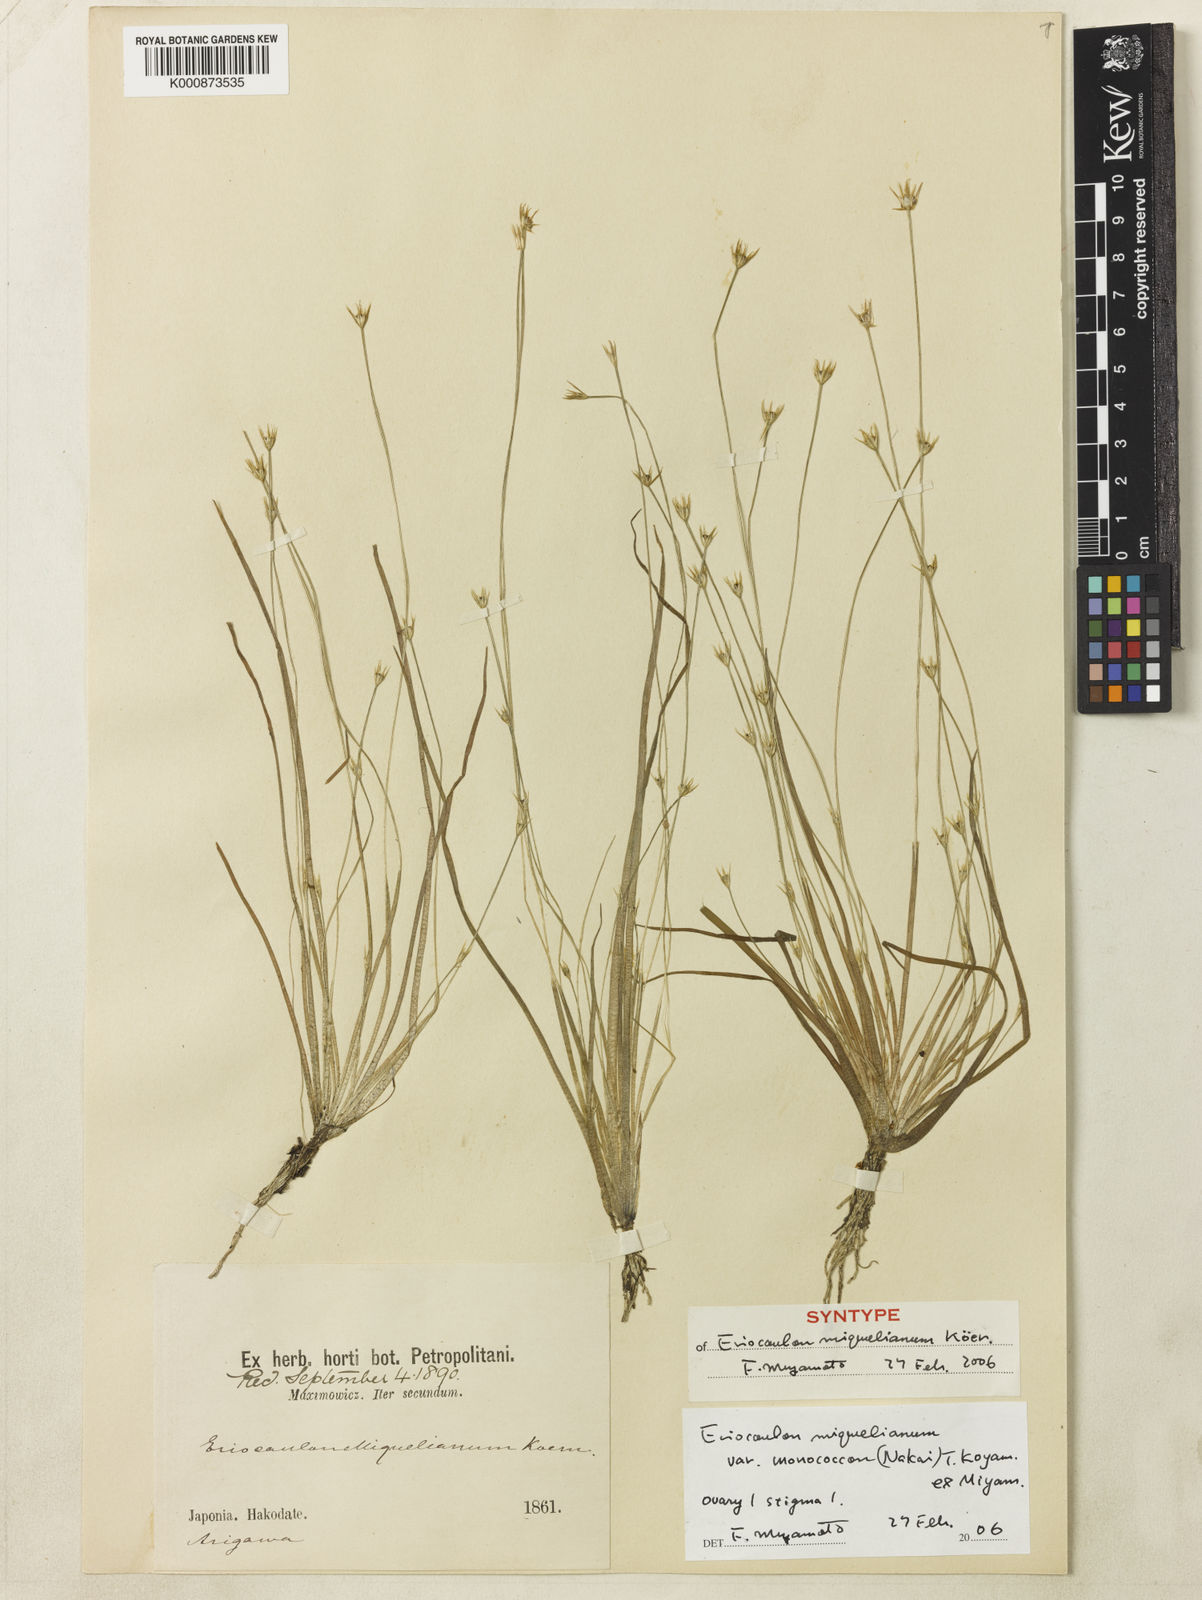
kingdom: Plantae
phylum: Tracheophyta
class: Liliopsida
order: Poales
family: Eriocaulaceae
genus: Eriocaulon
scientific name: Eriocaulon
